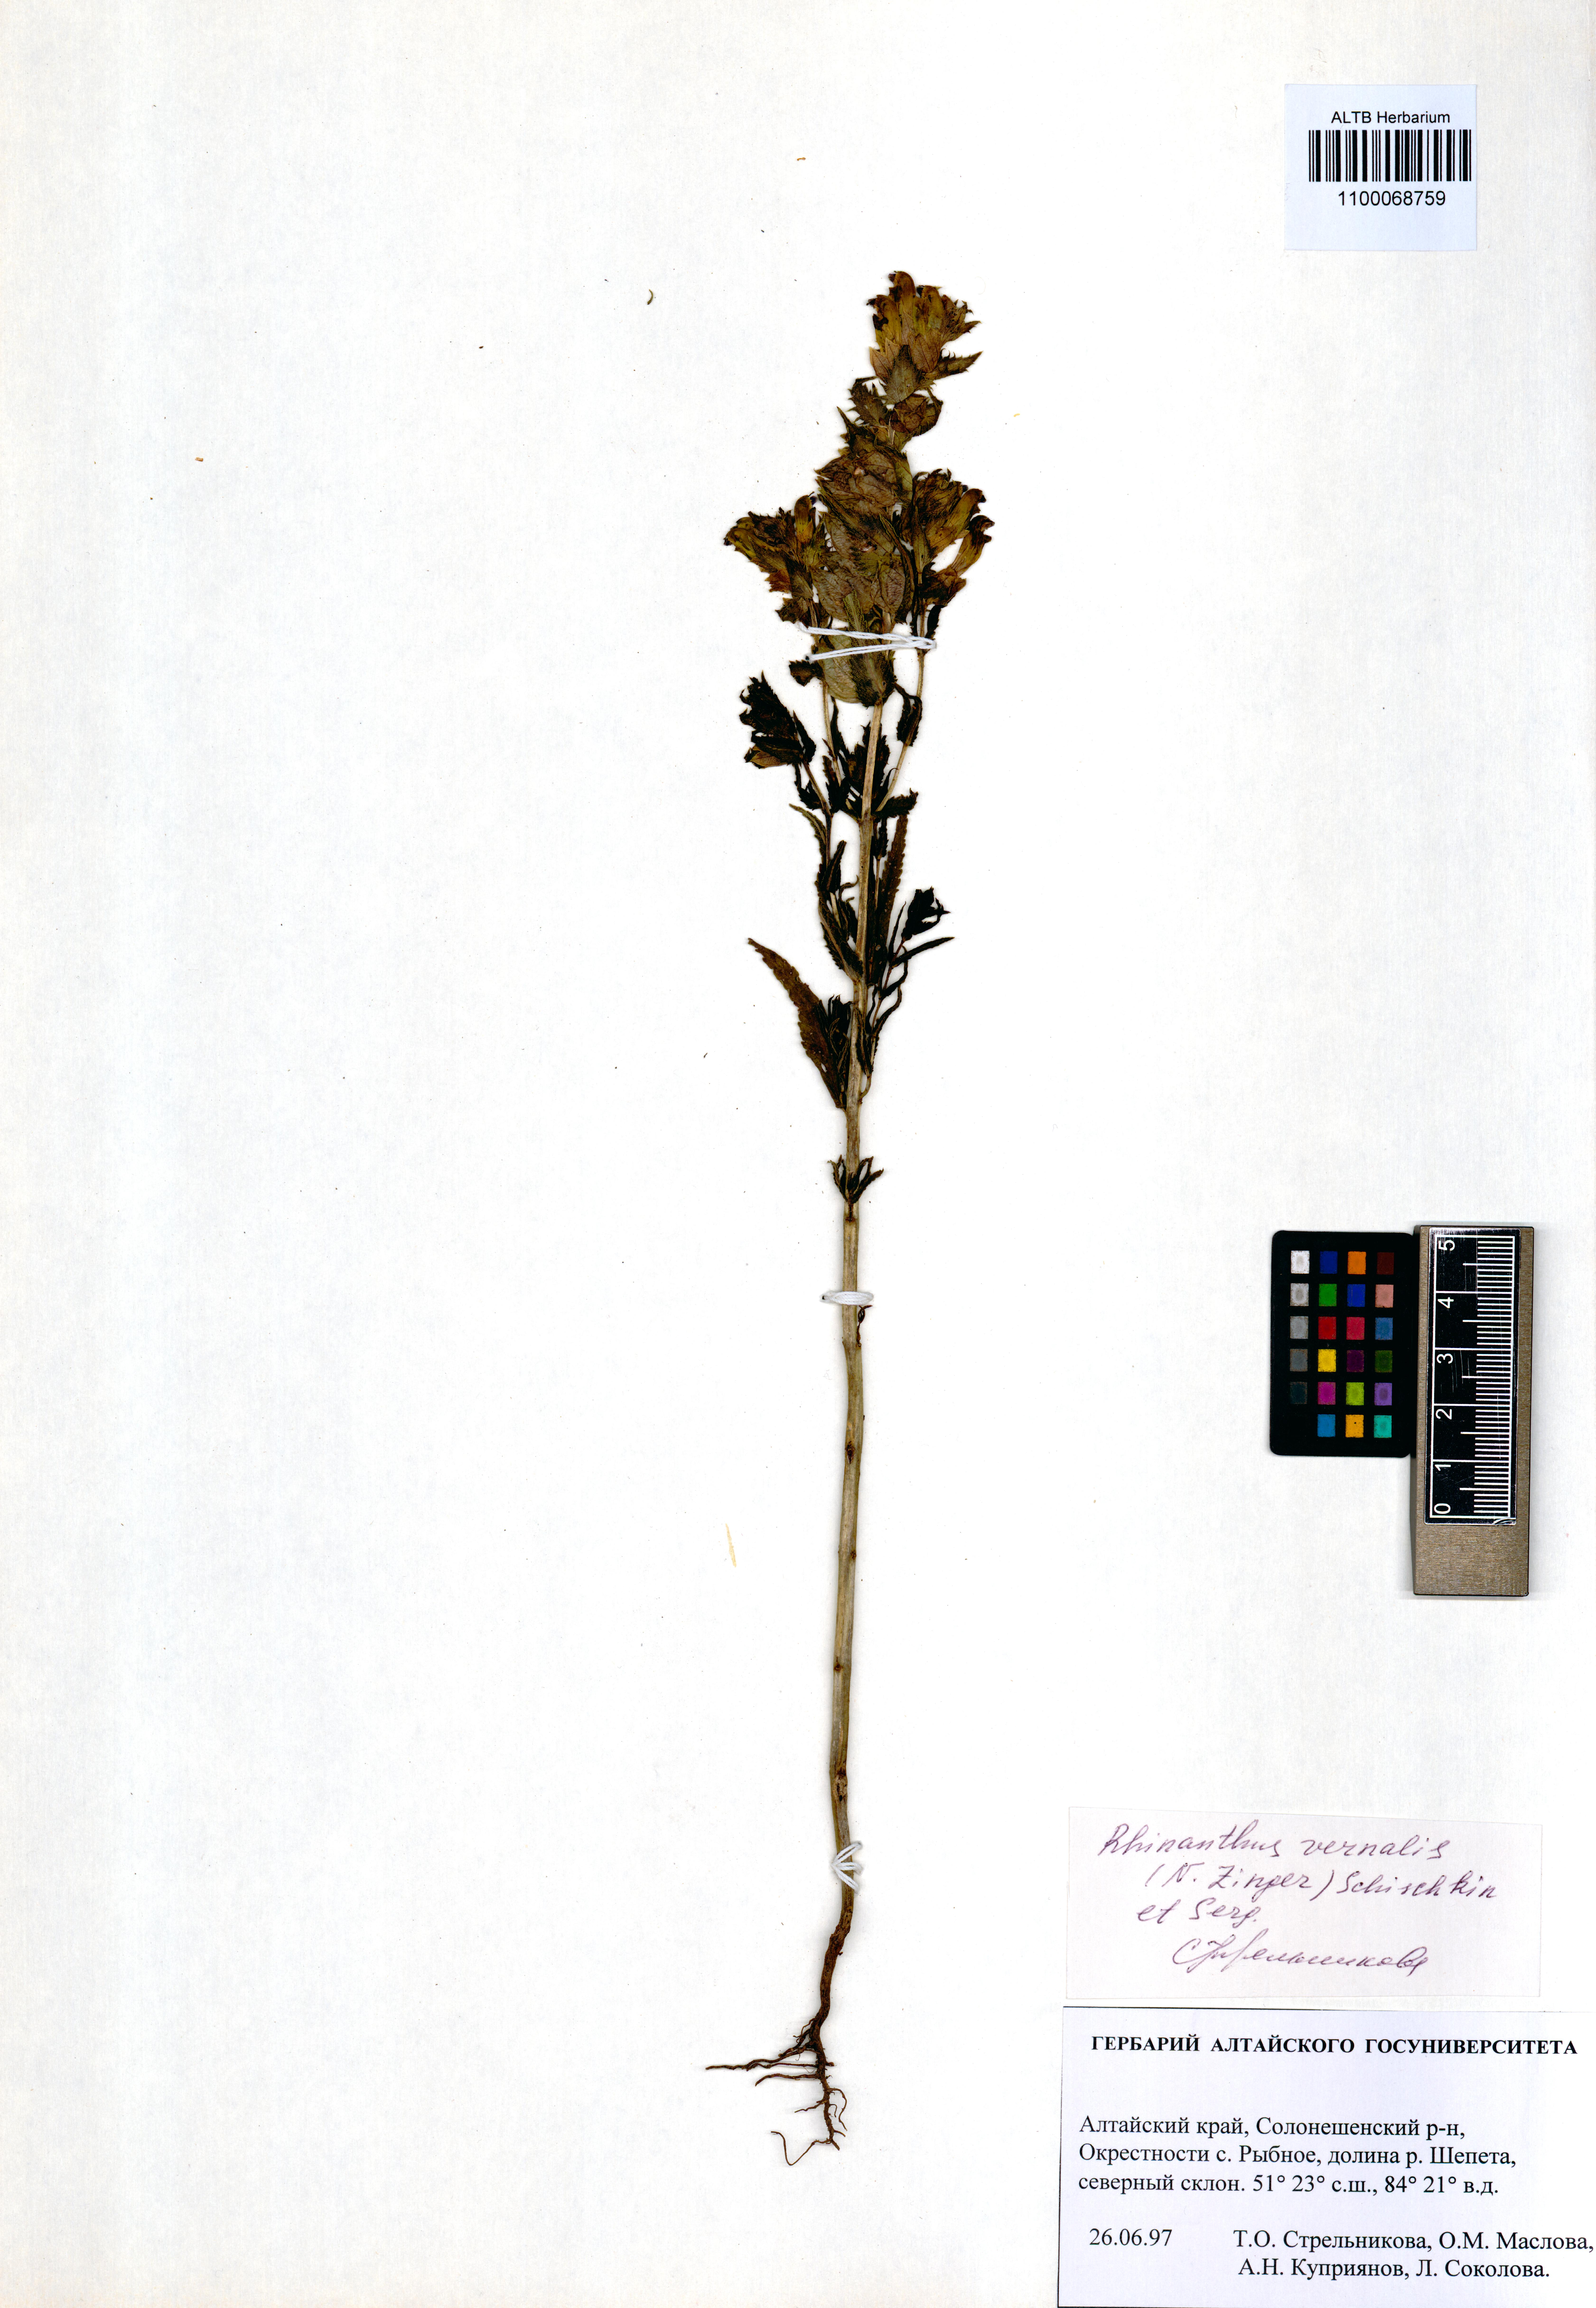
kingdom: Plantae
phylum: Tracheophyta
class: Magnoliopsida
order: Lamiales
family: Orobanchaceae
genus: Rhinanthus
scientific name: Rhinanthus serotinus
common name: Late-flowering yellow rattle
